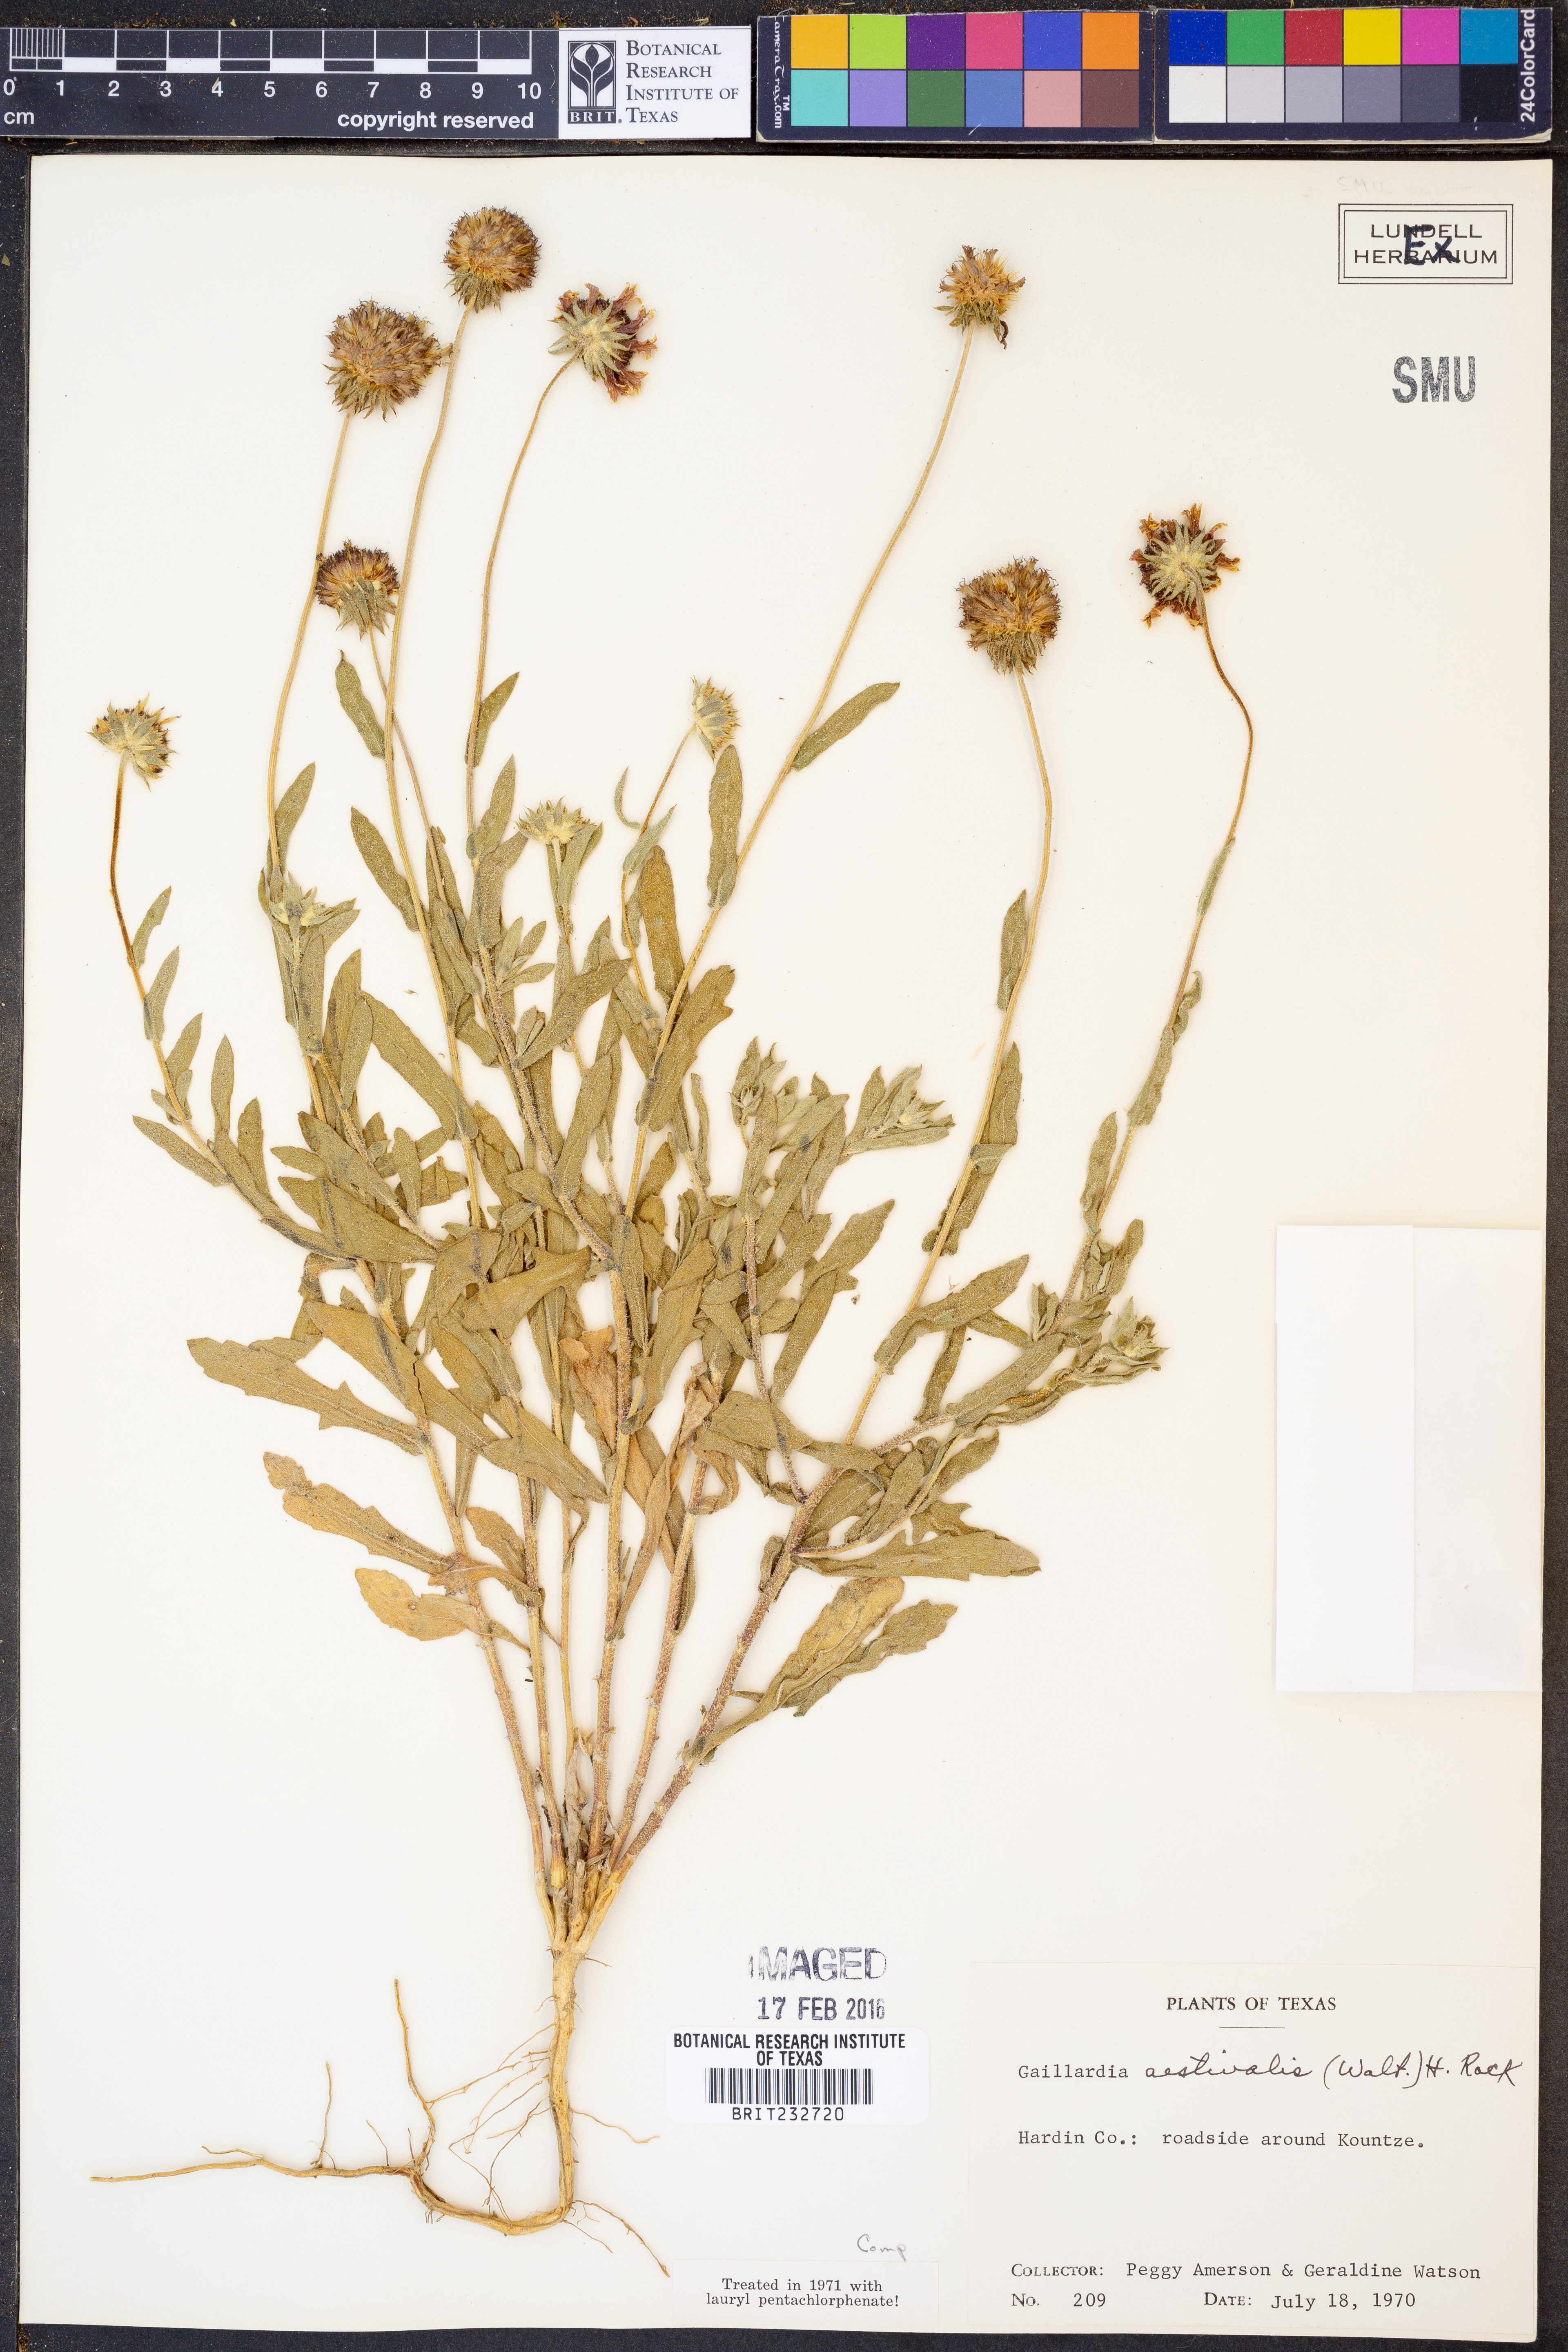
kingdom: Plantae
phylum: Tracheophyta
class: Magnoliopsida
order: Asterales
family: Asteraceae
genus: Gaillardia
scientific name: Gaillardia aestivalis
